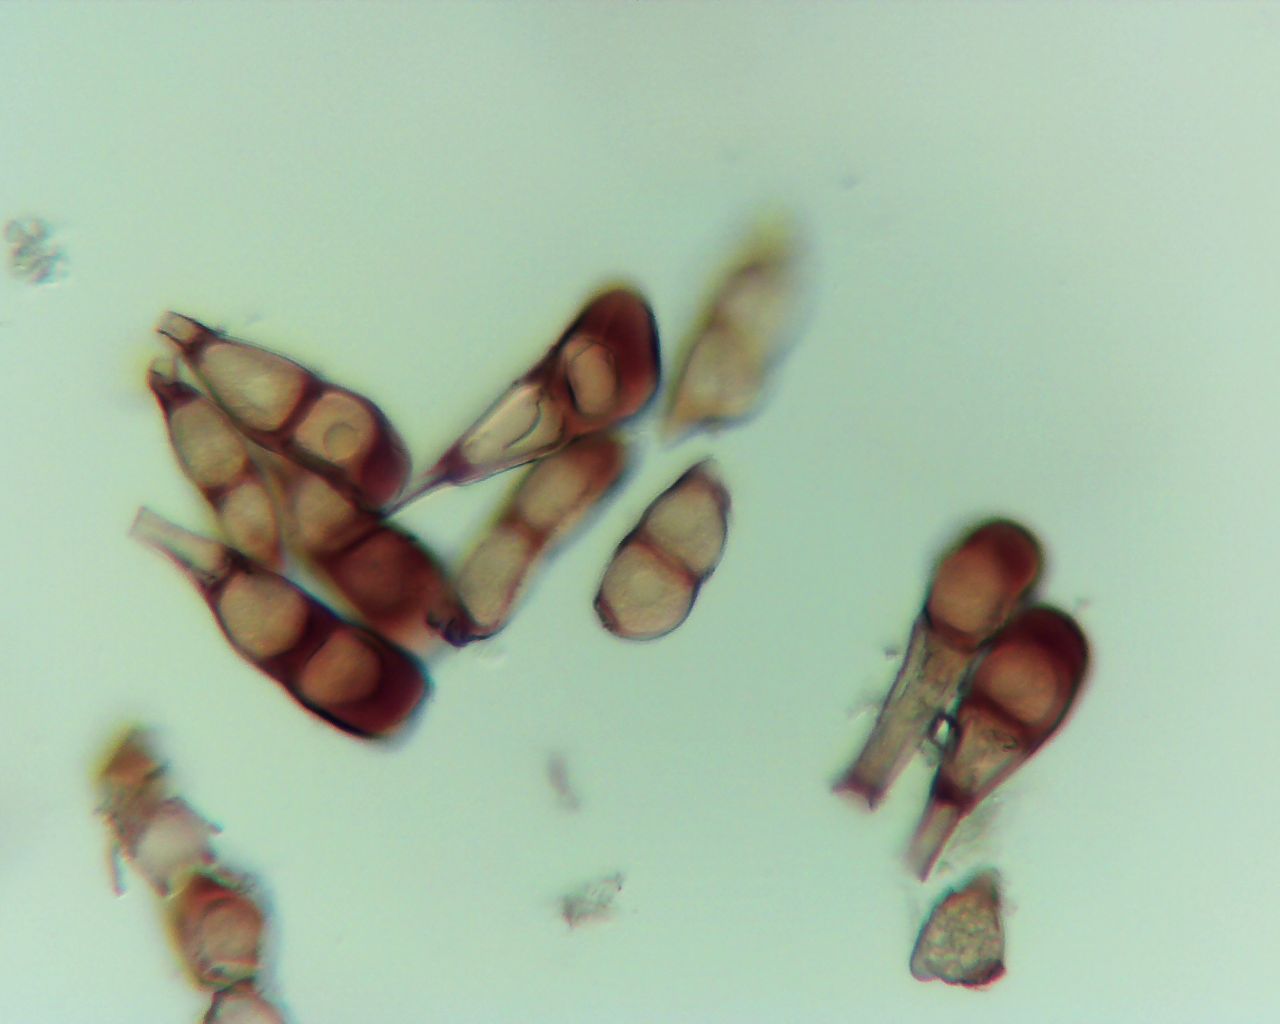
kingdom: Fungi
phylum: Basidiomycota
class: Pucciniomycetes
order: Pucciniales
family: Pucciniaceae
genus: Puccinia
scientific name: Puccinia difformis
